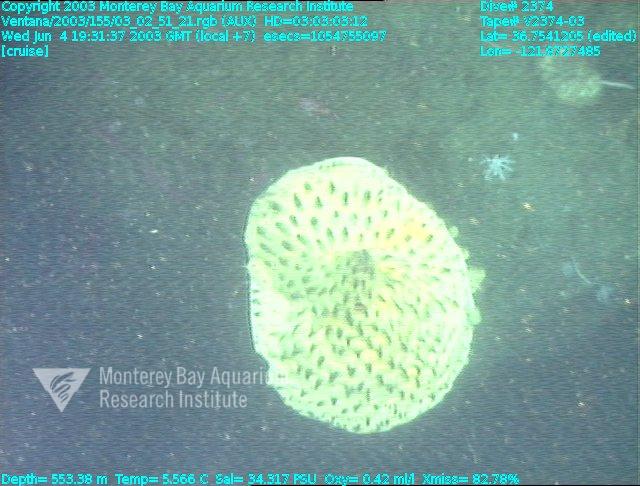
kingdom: Animalia
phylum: Porifera
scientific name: Porifera
